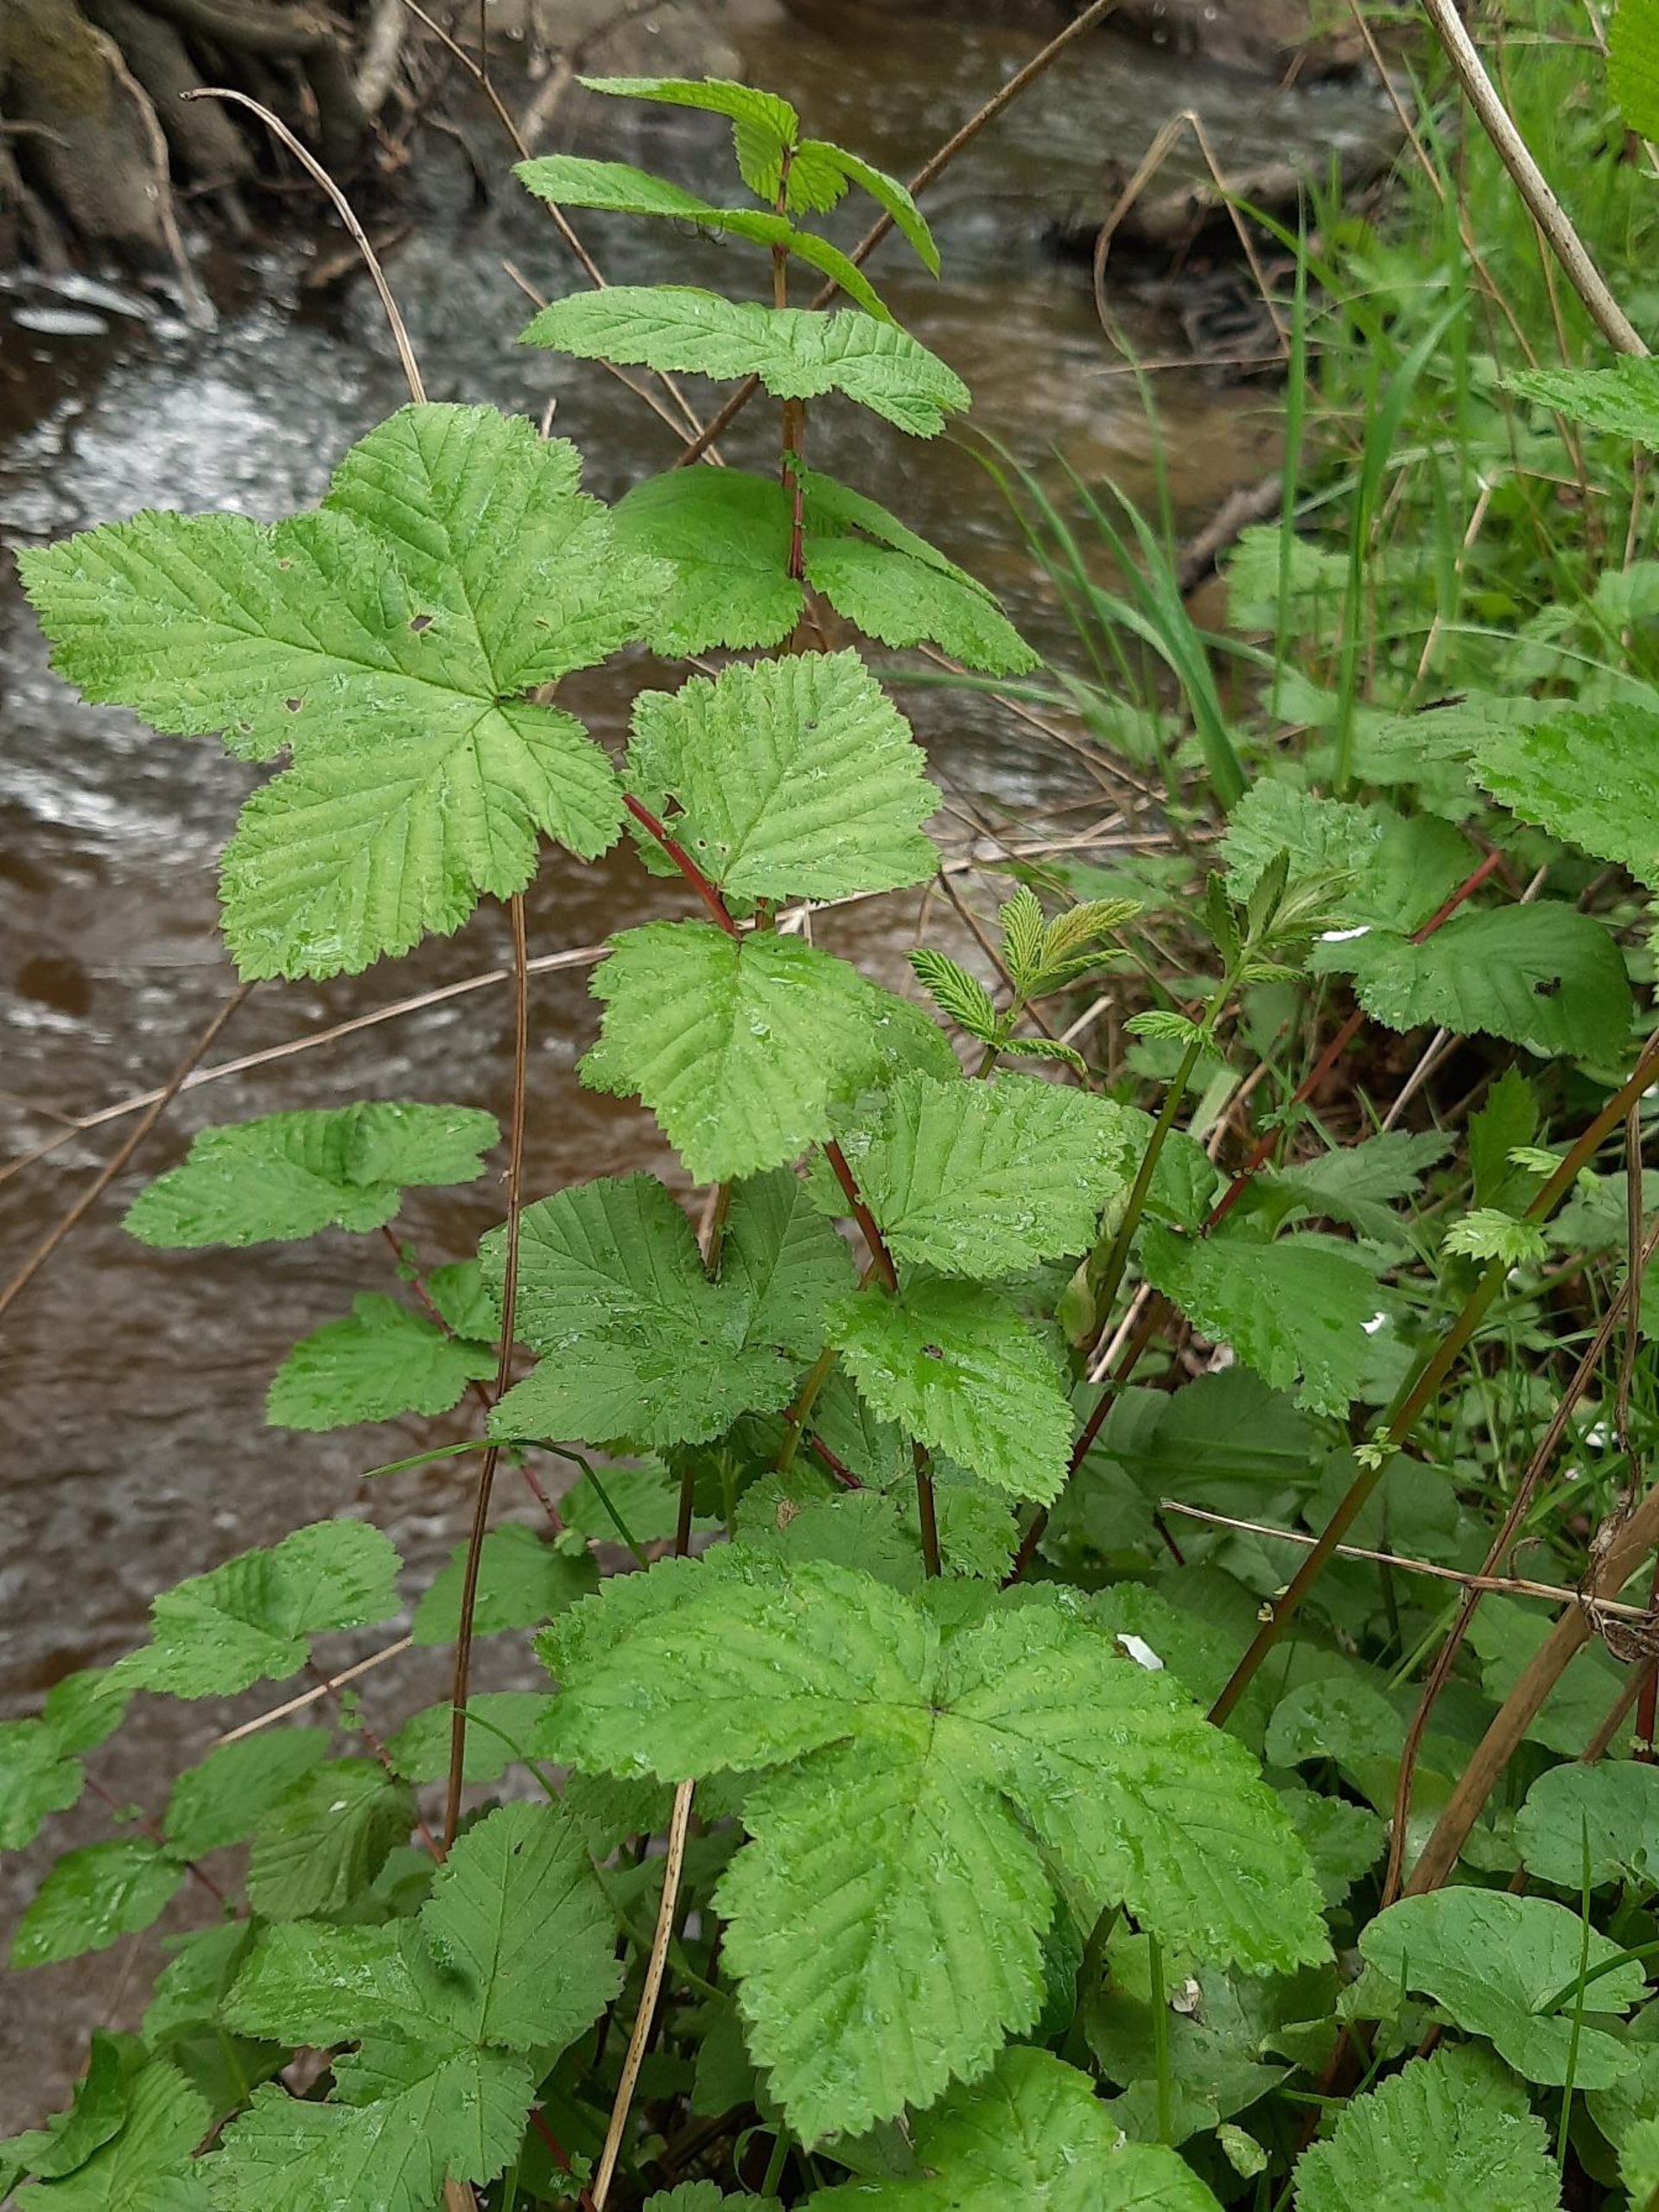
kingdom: Plantae
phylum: Tracheophyta
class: Magnoliopsida
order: Rosales
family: Rosaceae
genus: Filipendula
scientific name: Filipendula ulmaria
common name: Almindelig mjødurt
